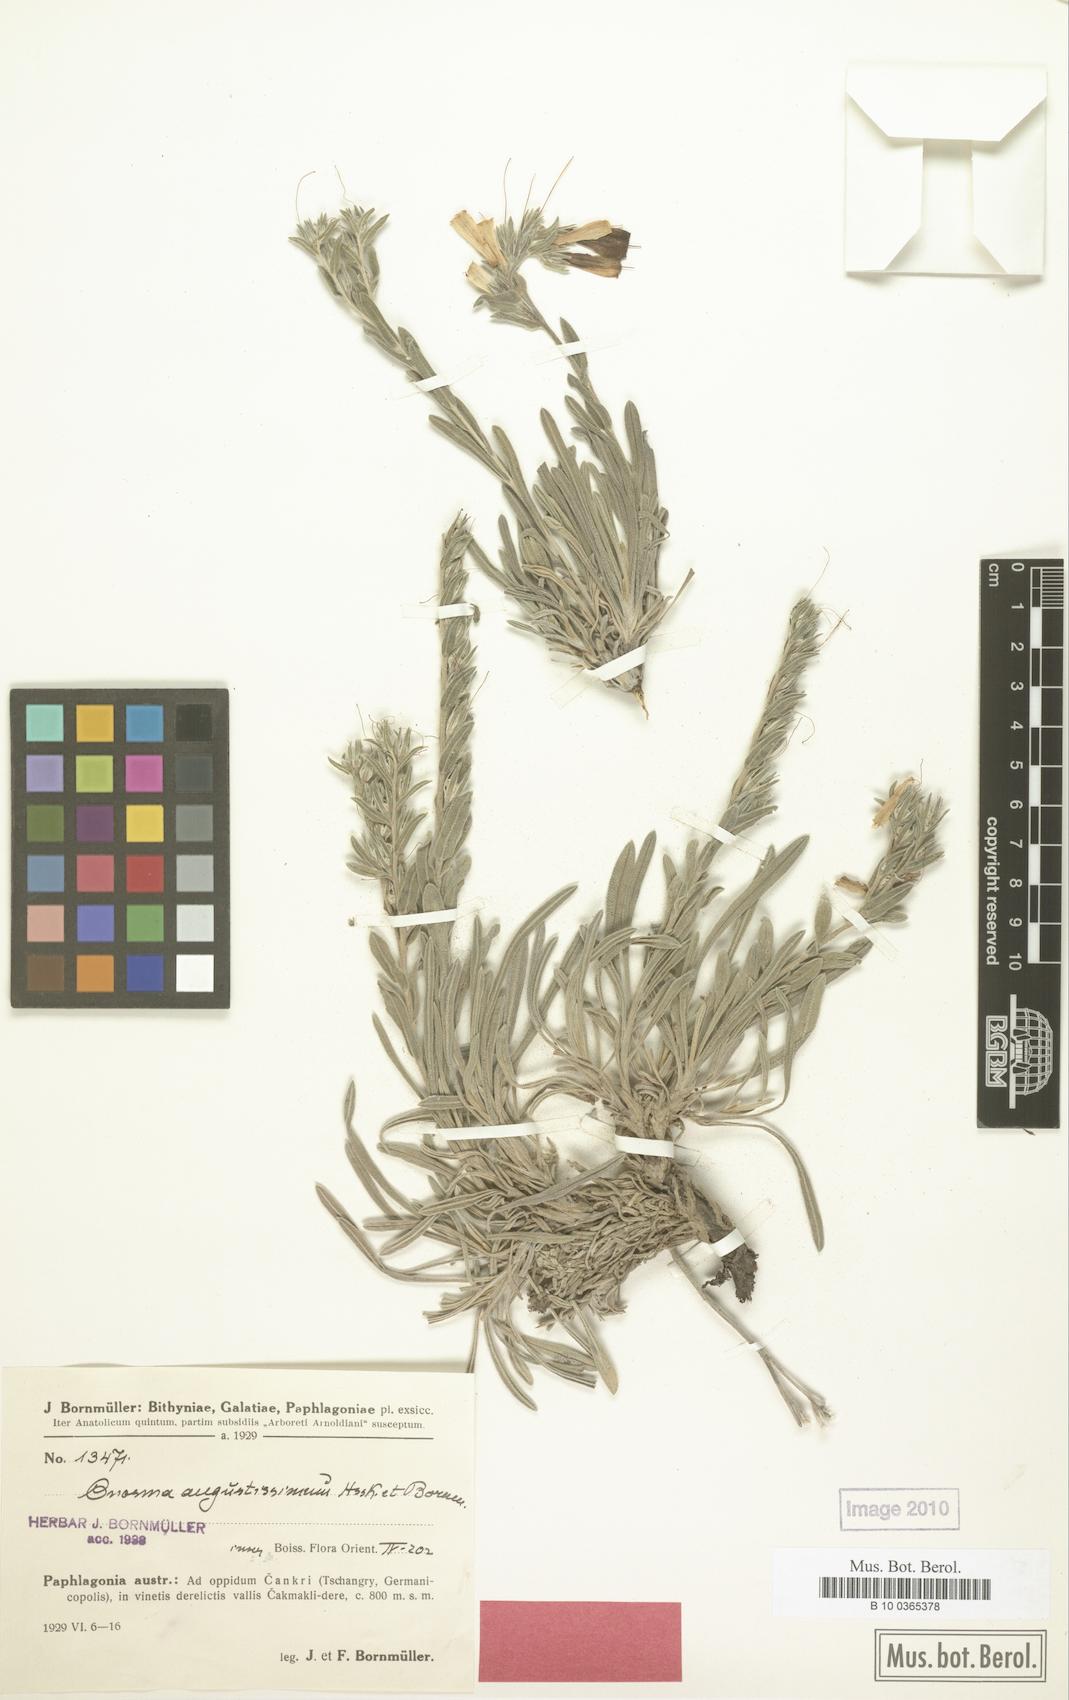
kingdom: Plantae
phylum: Tracheophyta
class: Magnoliopsida
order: Boraginales
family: Boraginaceae
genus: Onosma
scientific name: Onosma angustissima
